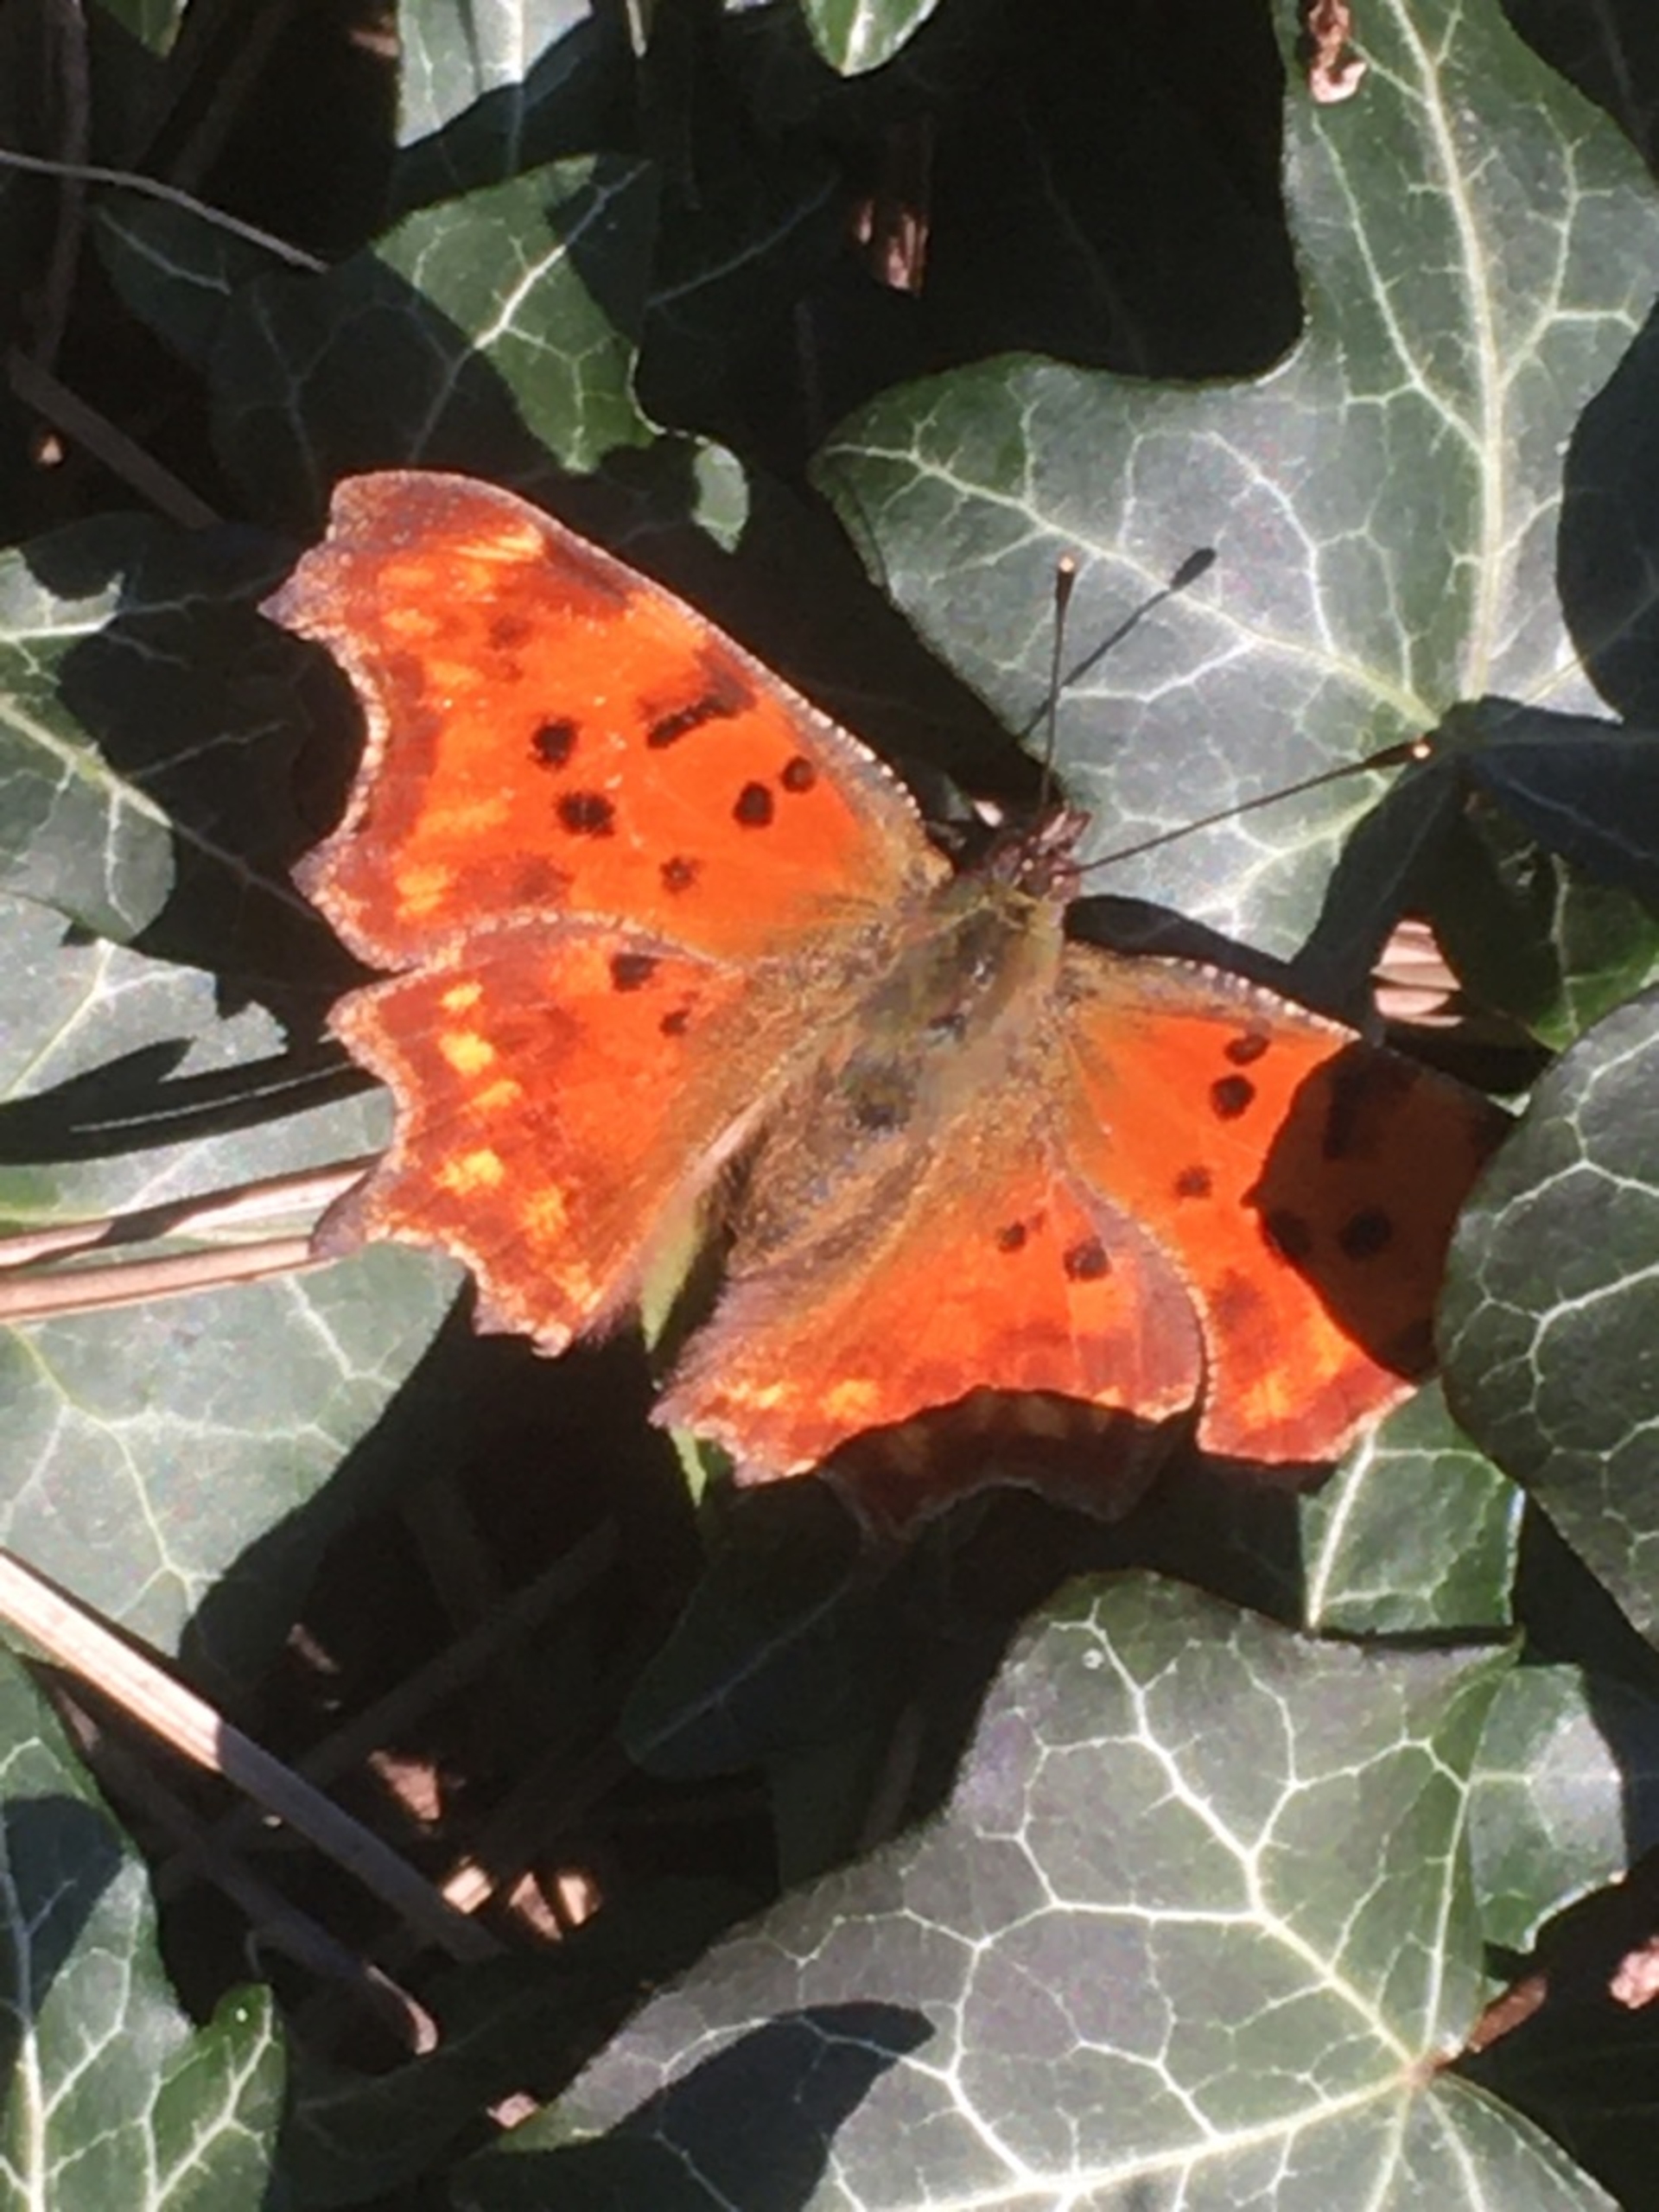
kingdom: Animalia
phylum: Arthropoda
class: Insecta
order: Lepidoptera
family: Nymphalidae
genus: Polygonia
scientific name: Polygonia c-album
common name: Det hvide C
